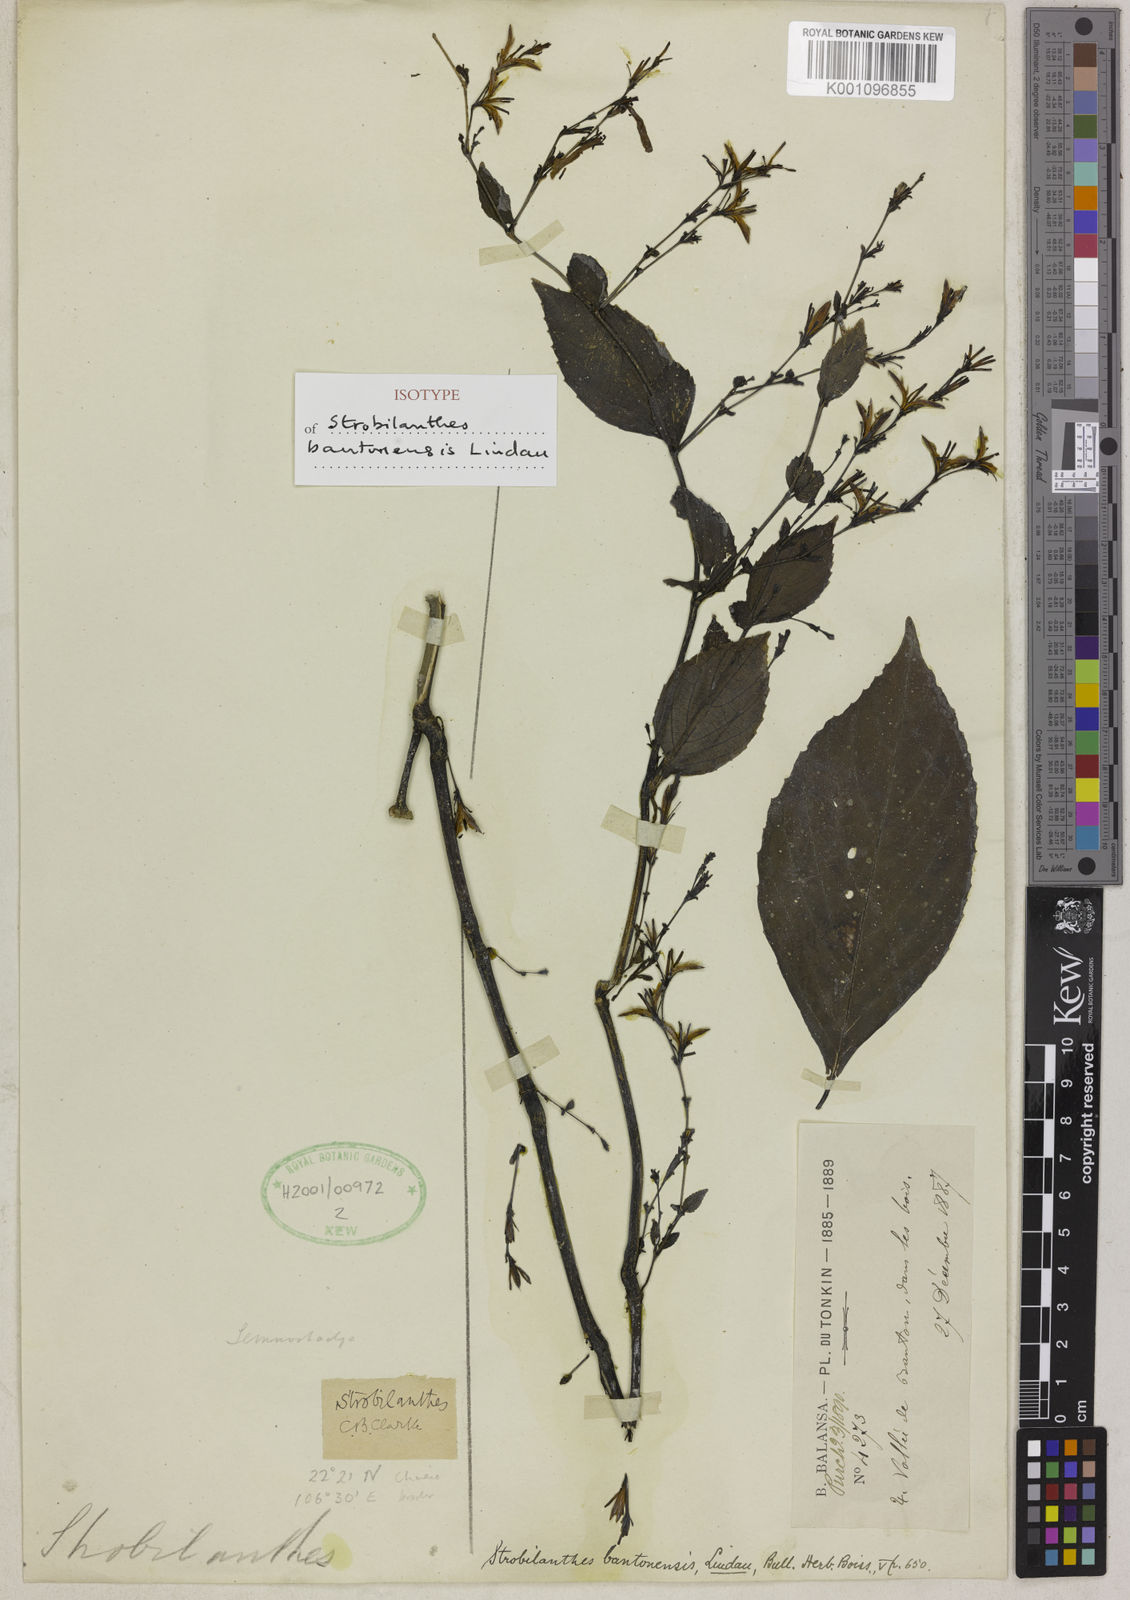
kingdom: Plantae
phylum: Tracheophyta
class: Magnoliopsida
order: Lamiales
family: Acanthaceae
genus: Strobilanthes
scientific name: Strobilanthes bantonensis
